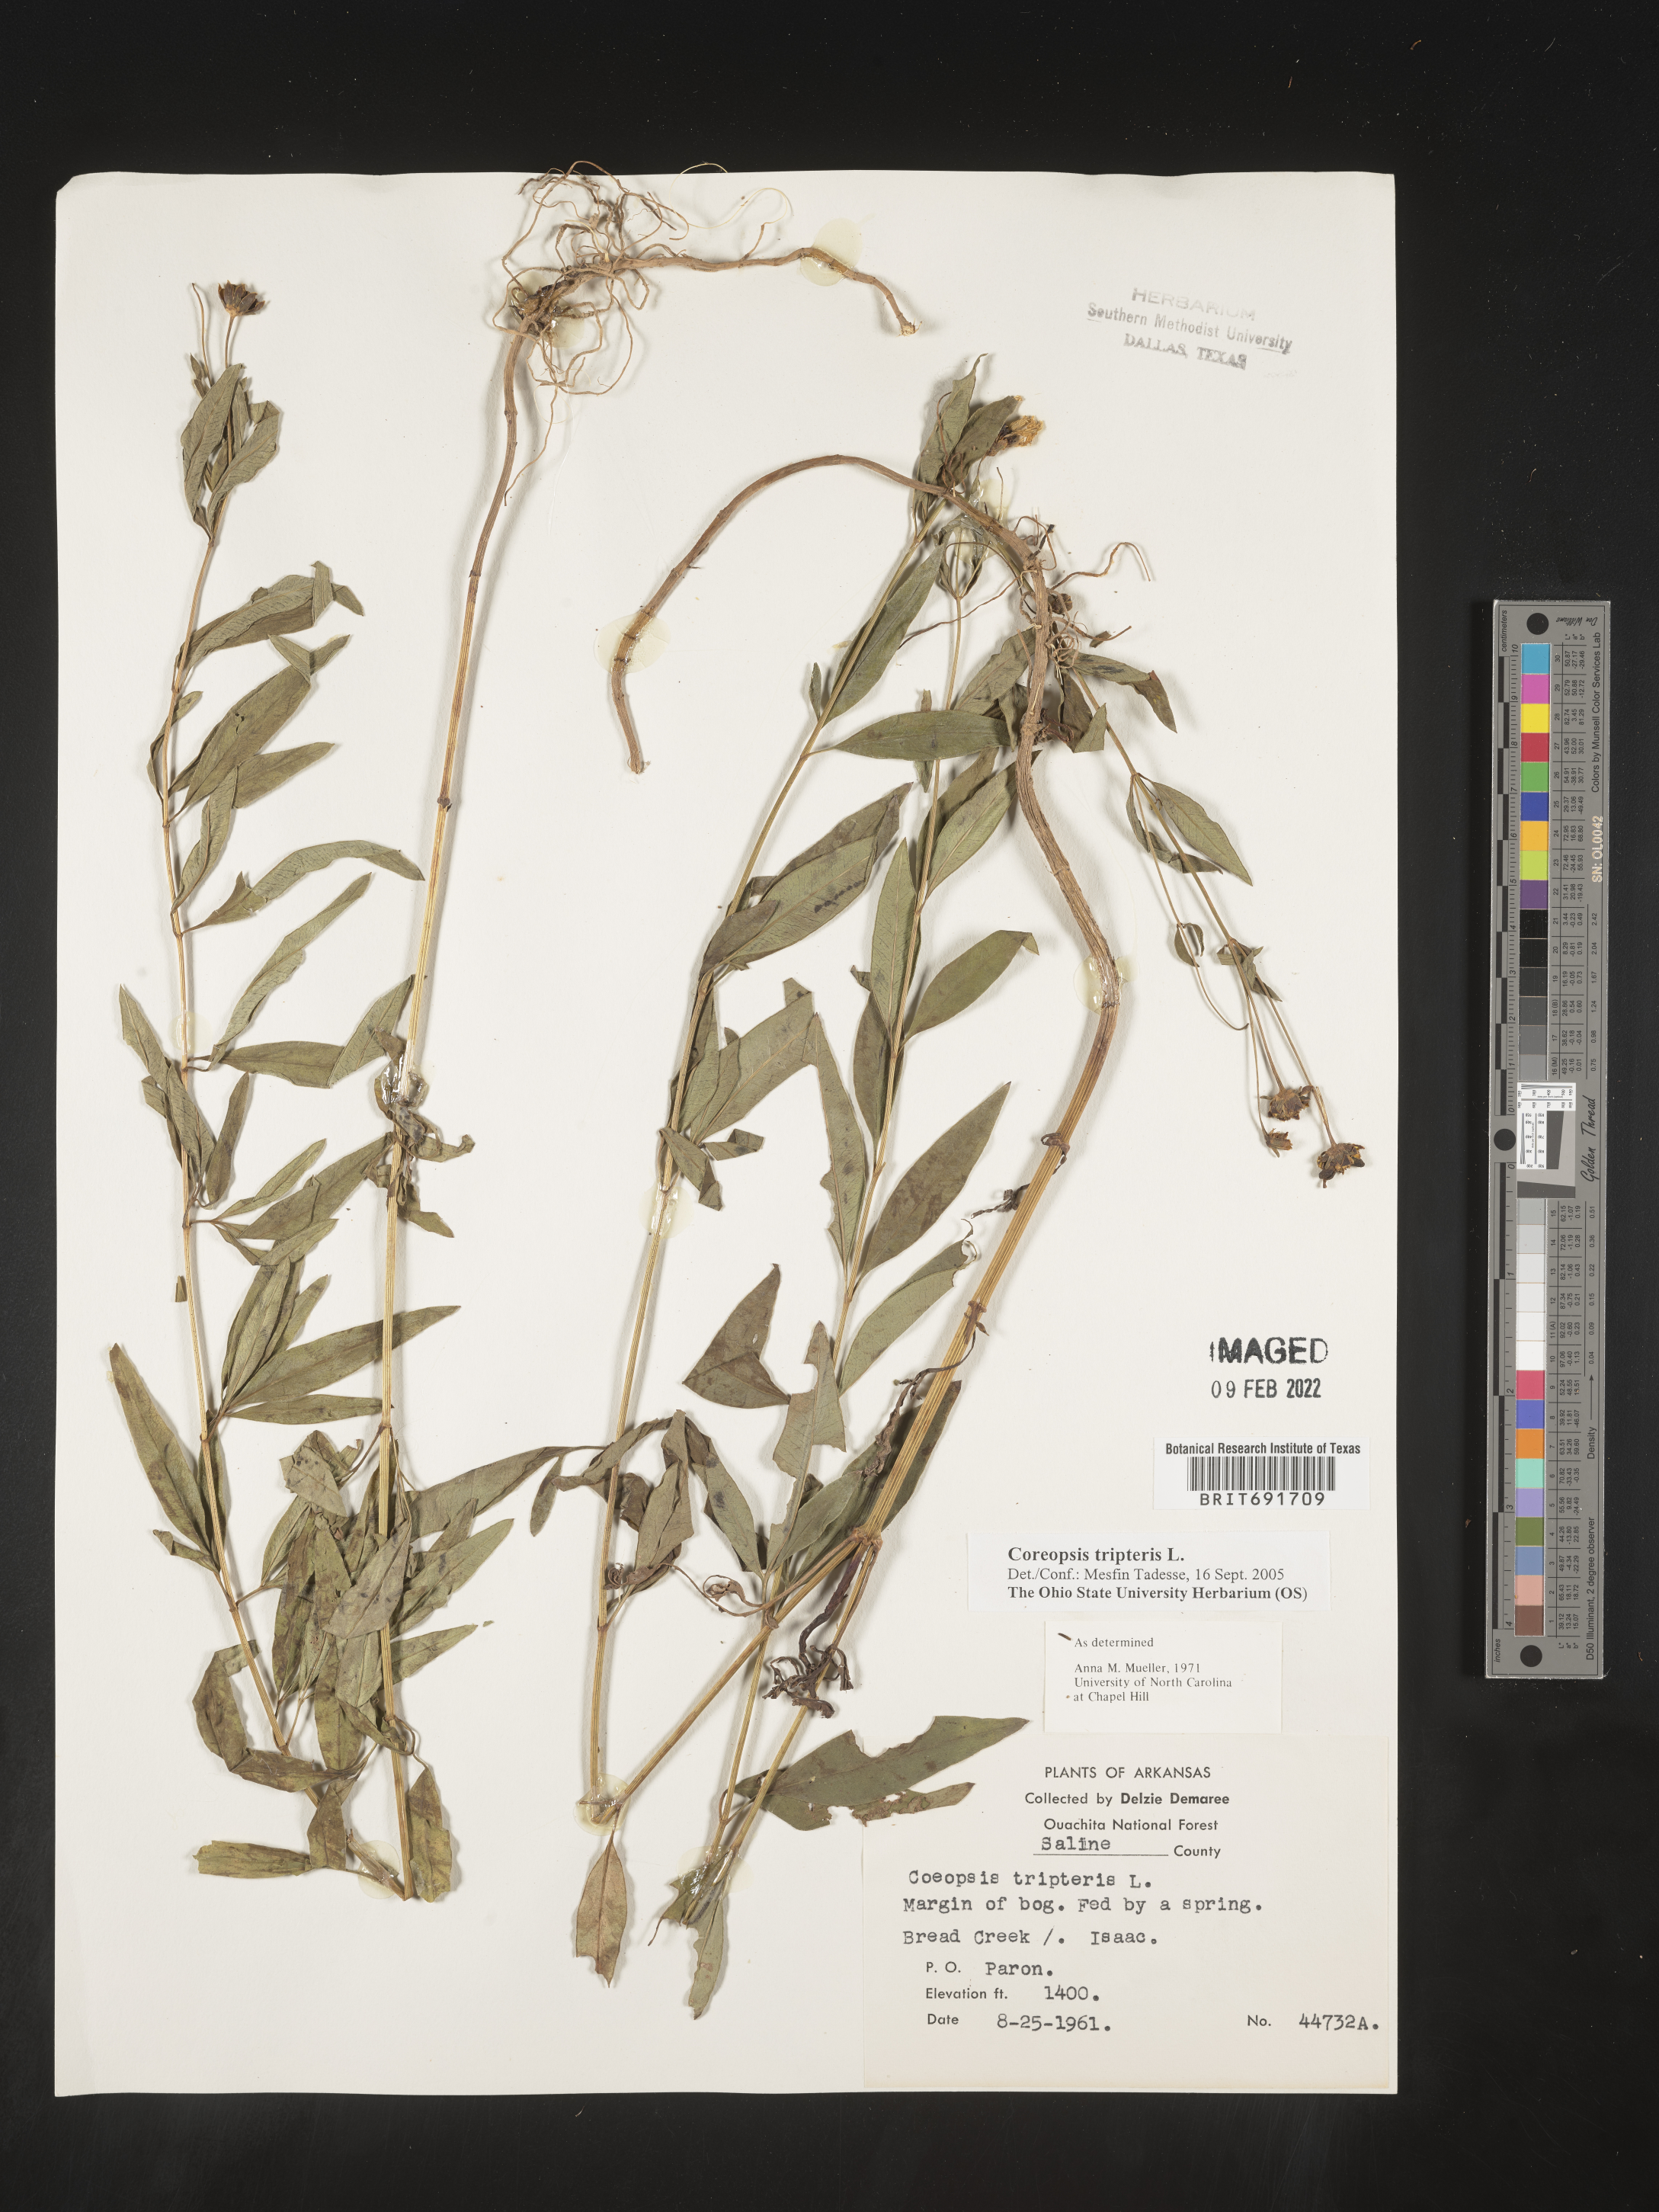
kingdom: Plantae
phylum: Tracheophyta
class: Magnoliopsida
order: Asterales
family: Asteraceae
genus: Coreopsis
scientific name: Coreopsis tripteris
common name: Tall coreopsis
